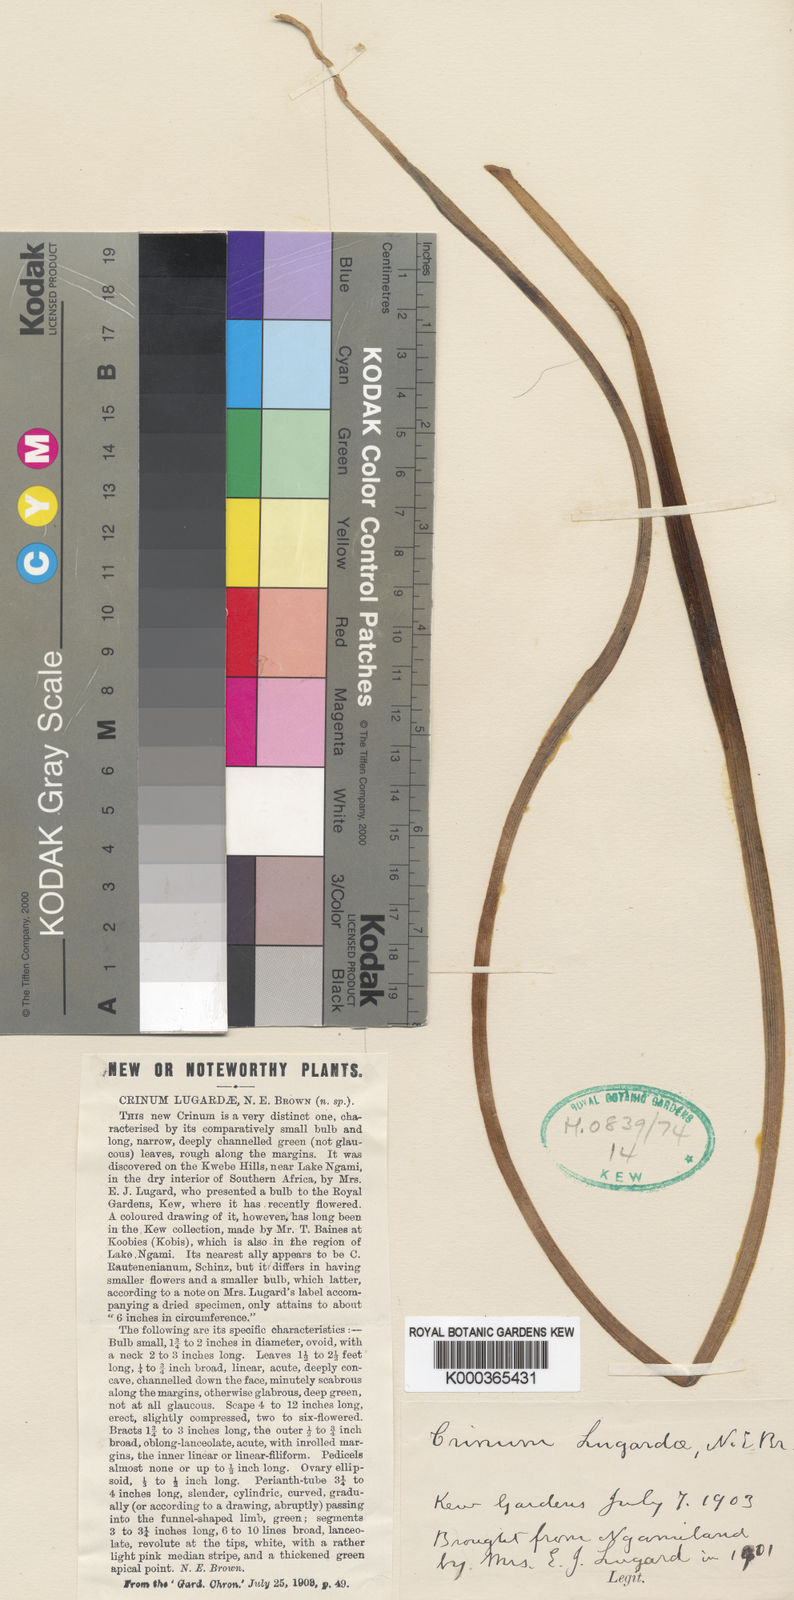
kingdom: Plantae
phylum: Tracheophyta
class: Liliopsida
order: Asparagales
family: Amaryllidaceae
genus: Crinum
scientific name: Crinum lugardiae
